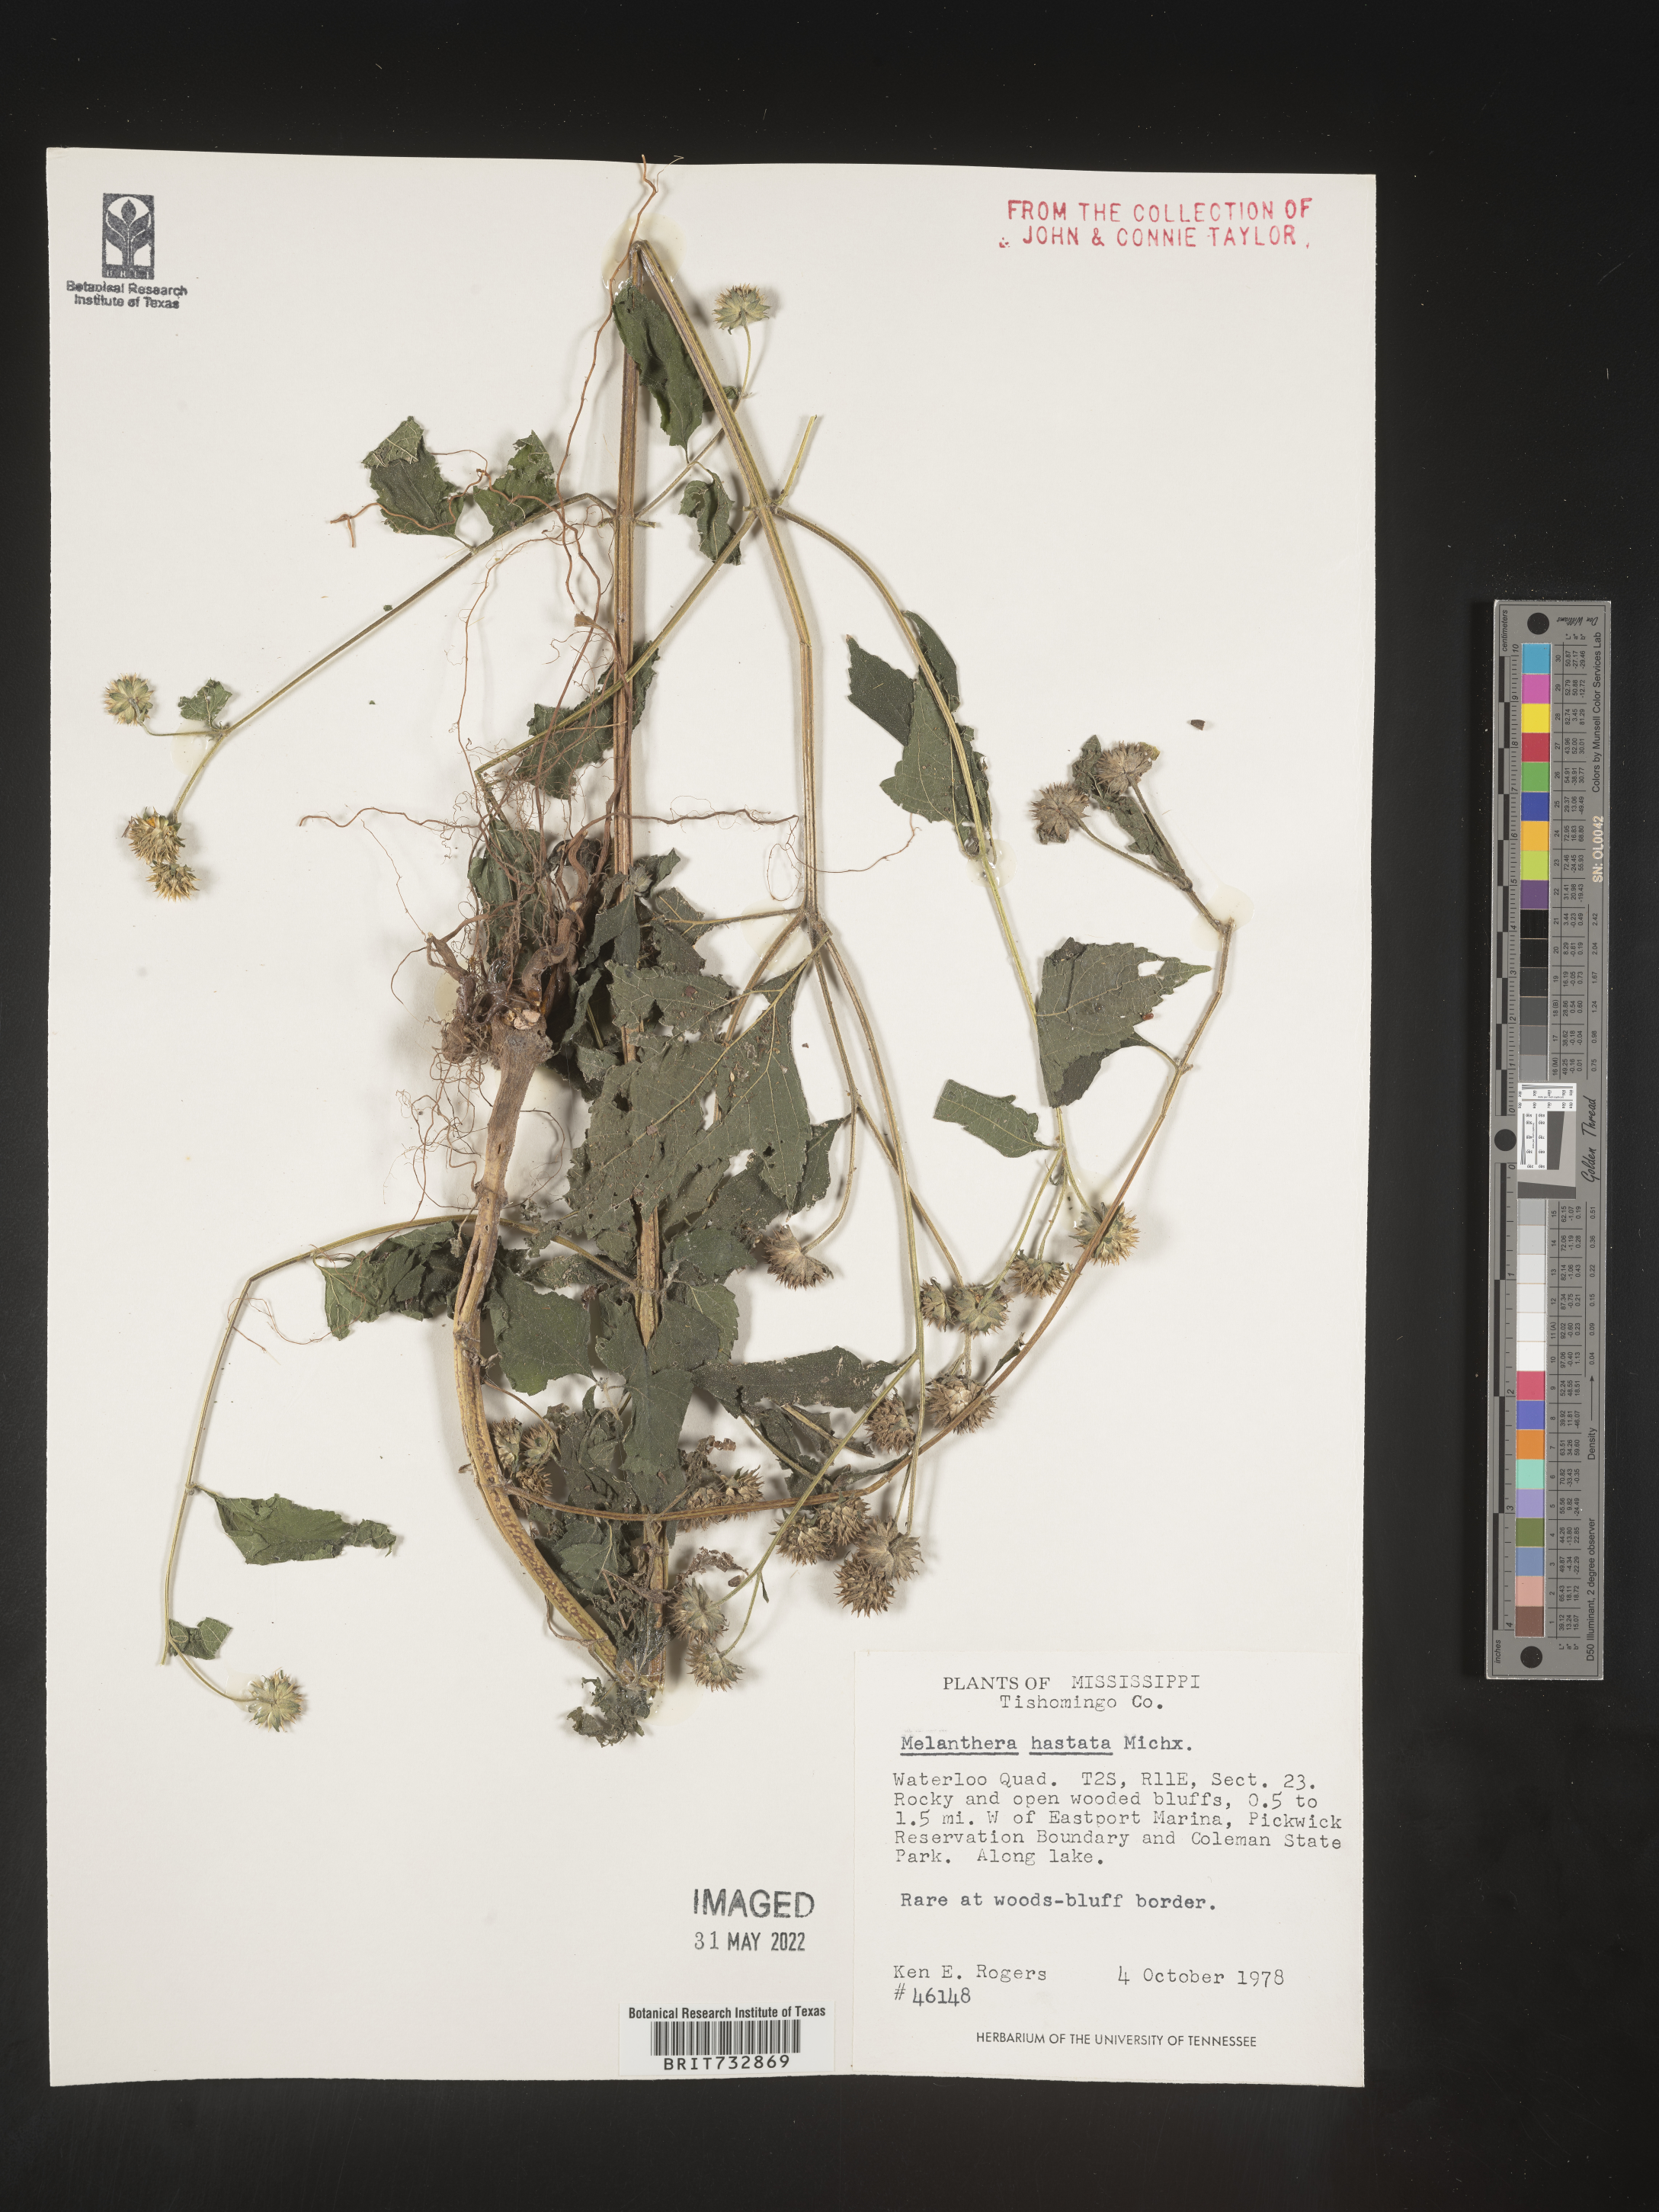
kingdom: Plantae
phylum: Tracheophyta
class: Magnoliopsida
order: Asterales
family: Asteraceae
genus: Melanthera
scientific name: Melanthera nivea
